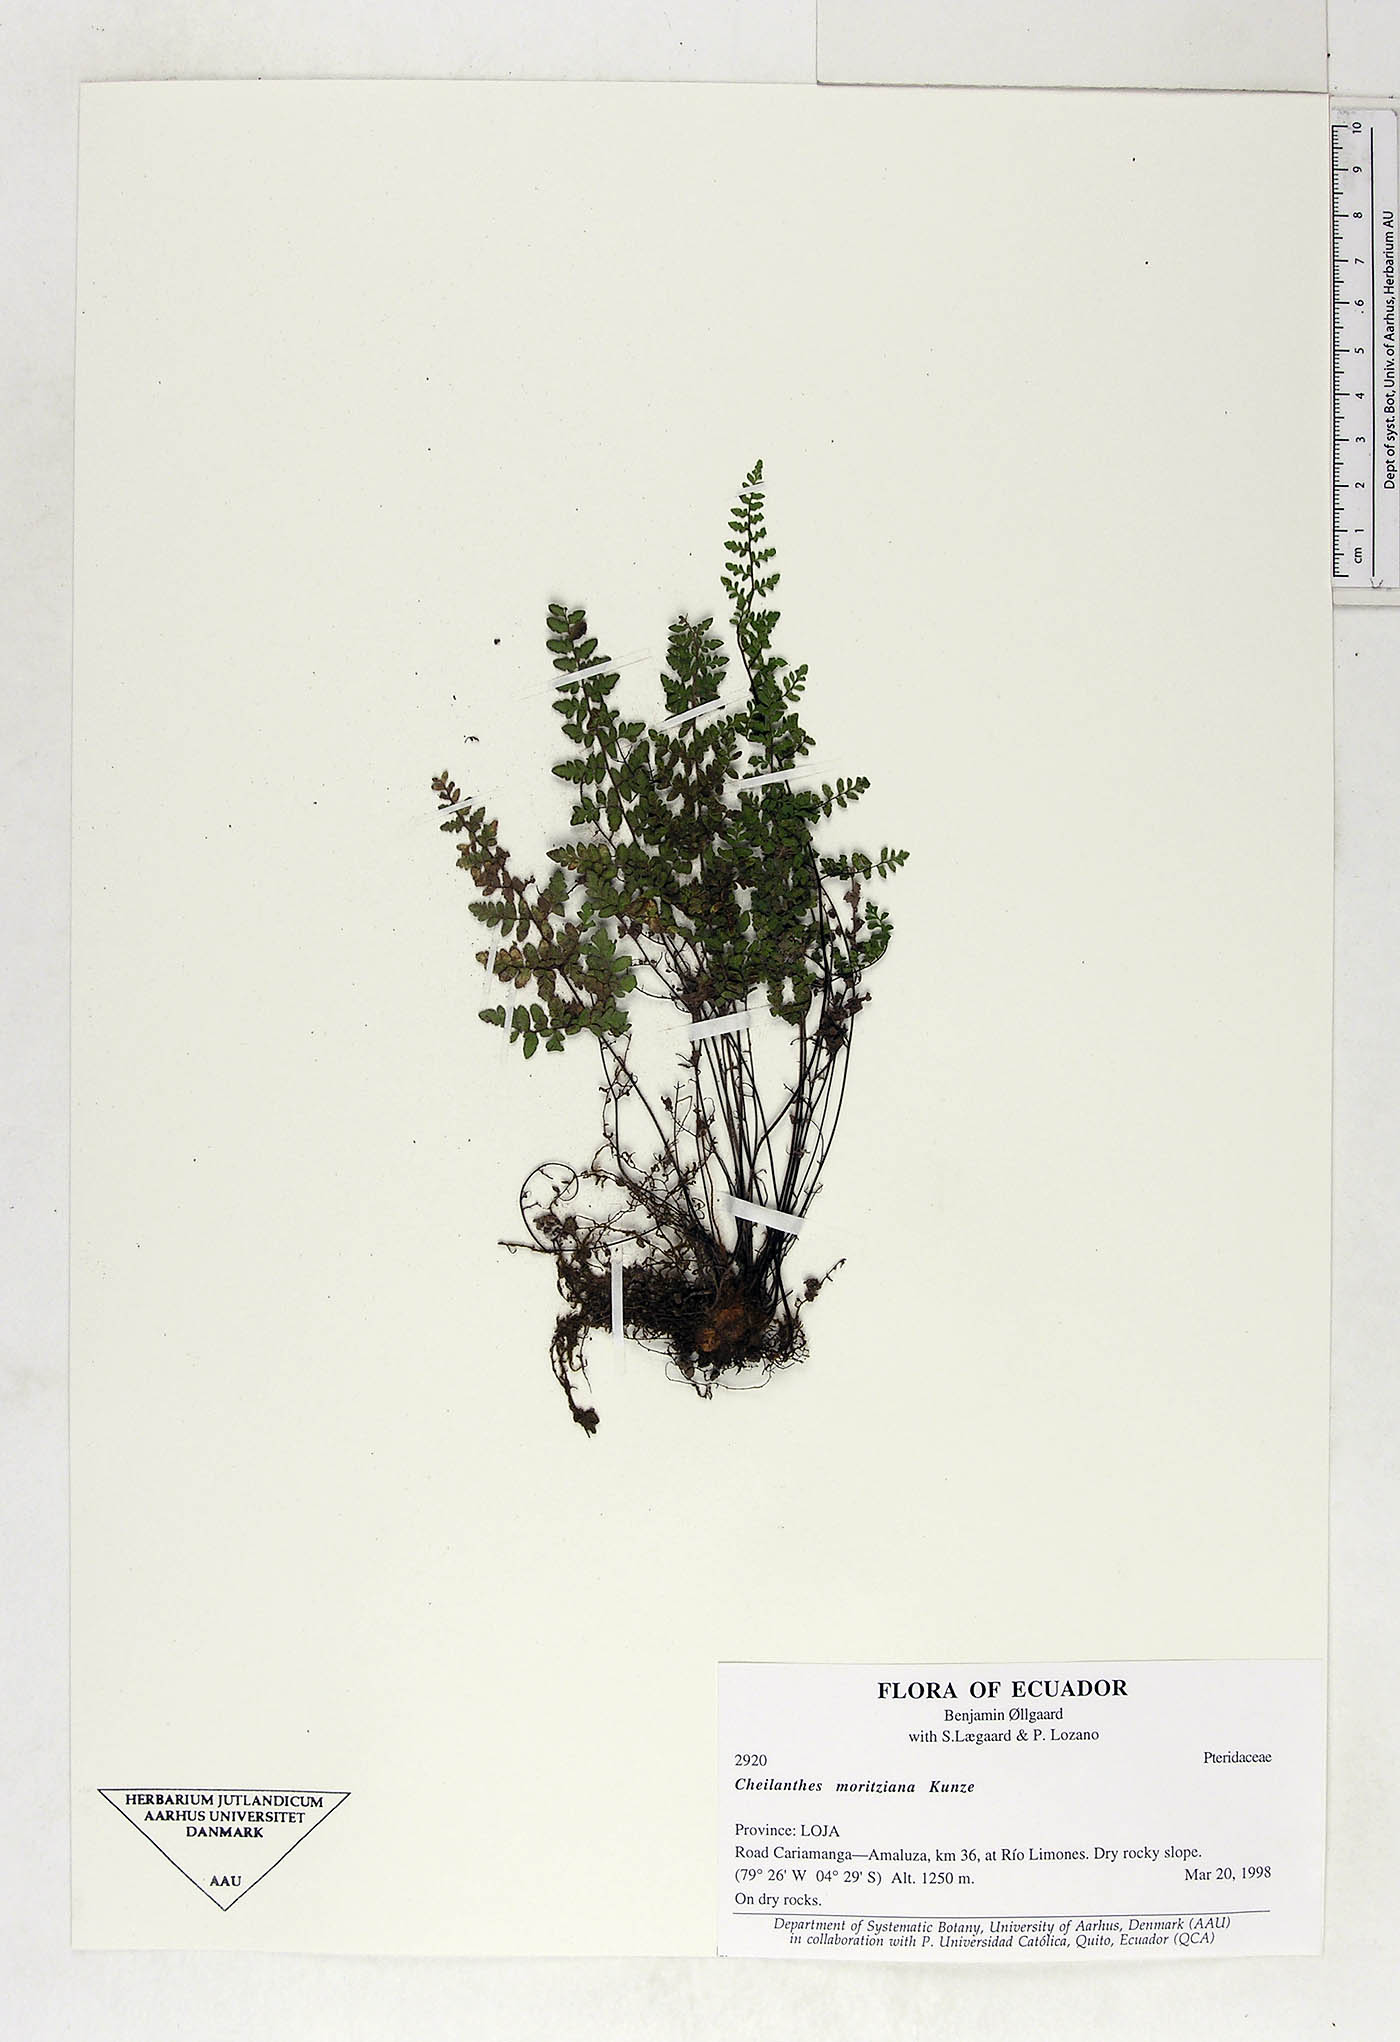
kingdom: Plantae
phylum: Tracheophyta
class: Polypodiopsida
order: Polypodiales
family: Pteridaceae
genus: Myriopteris
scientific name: Myriopteris moritziana
